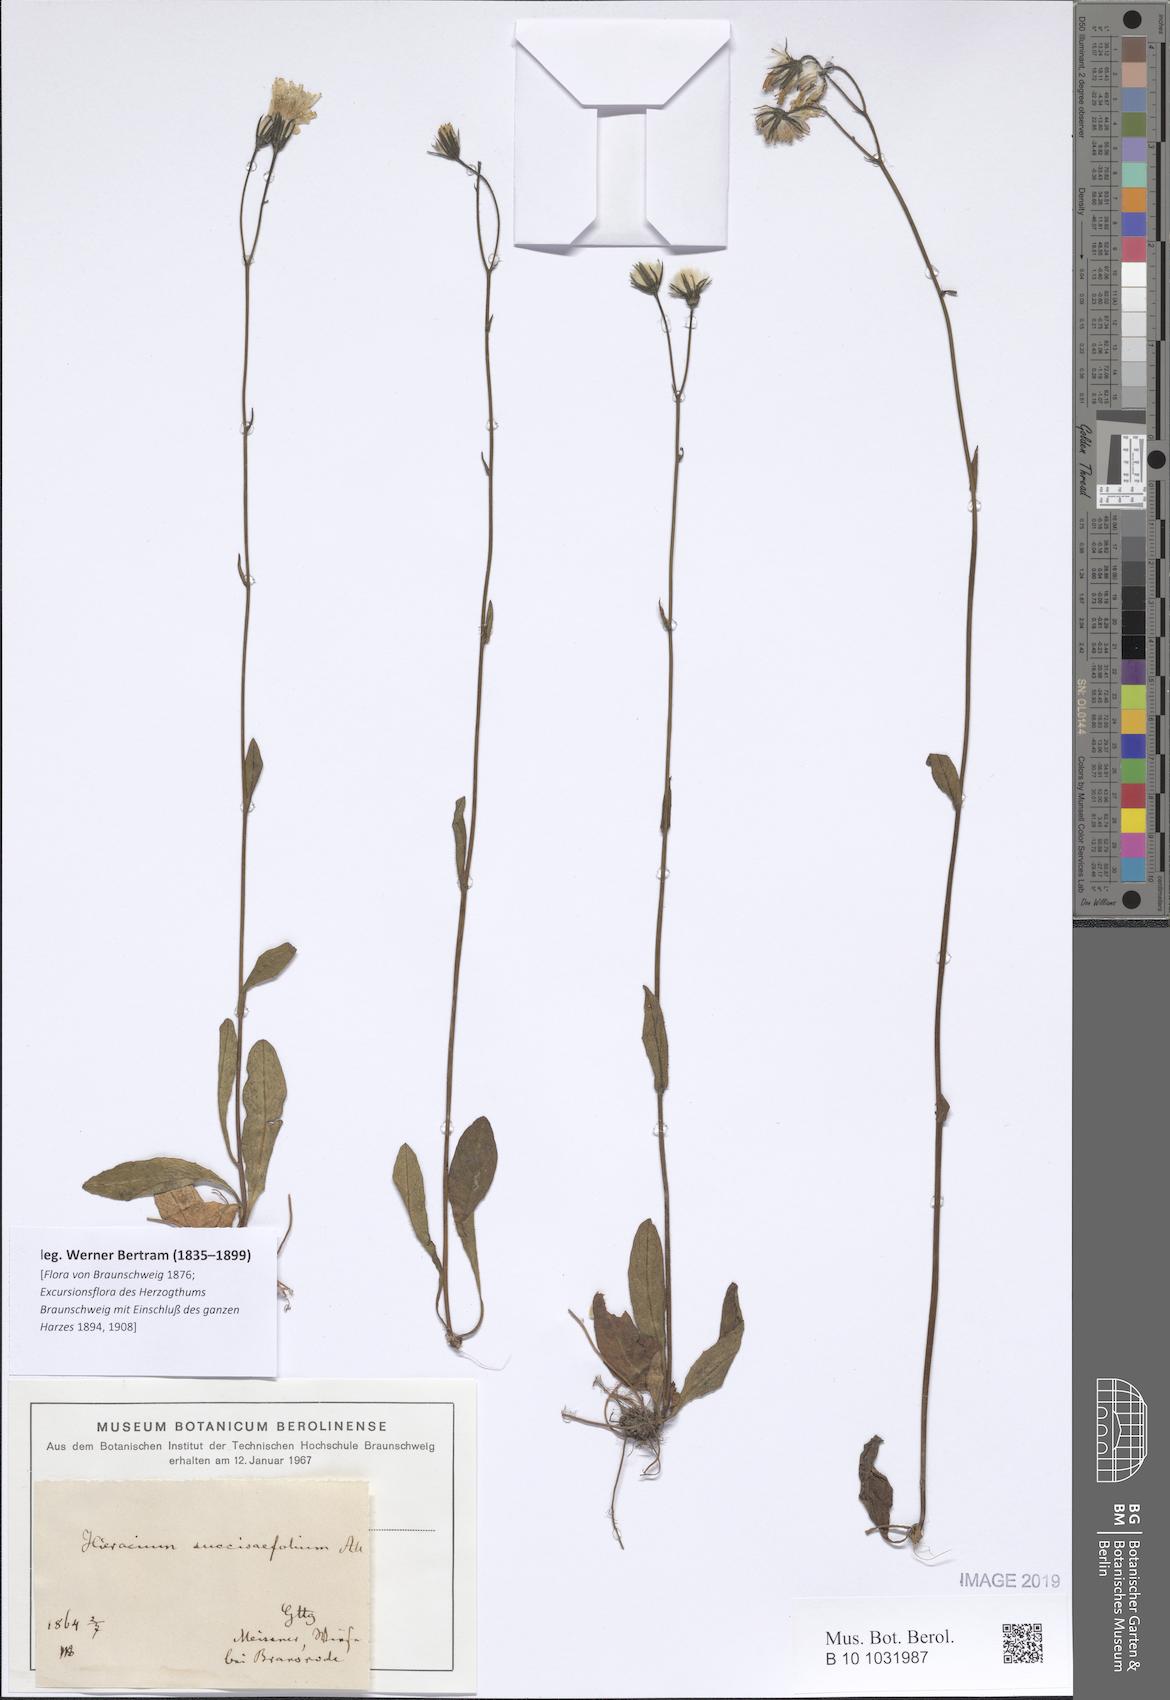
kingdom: Plantae
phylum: Tracheophyta
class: Magnoliopsida
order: Asterales
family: Asteraceae
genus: Crepis
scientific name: Crepis mollis
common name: Northern hawk's-beard
